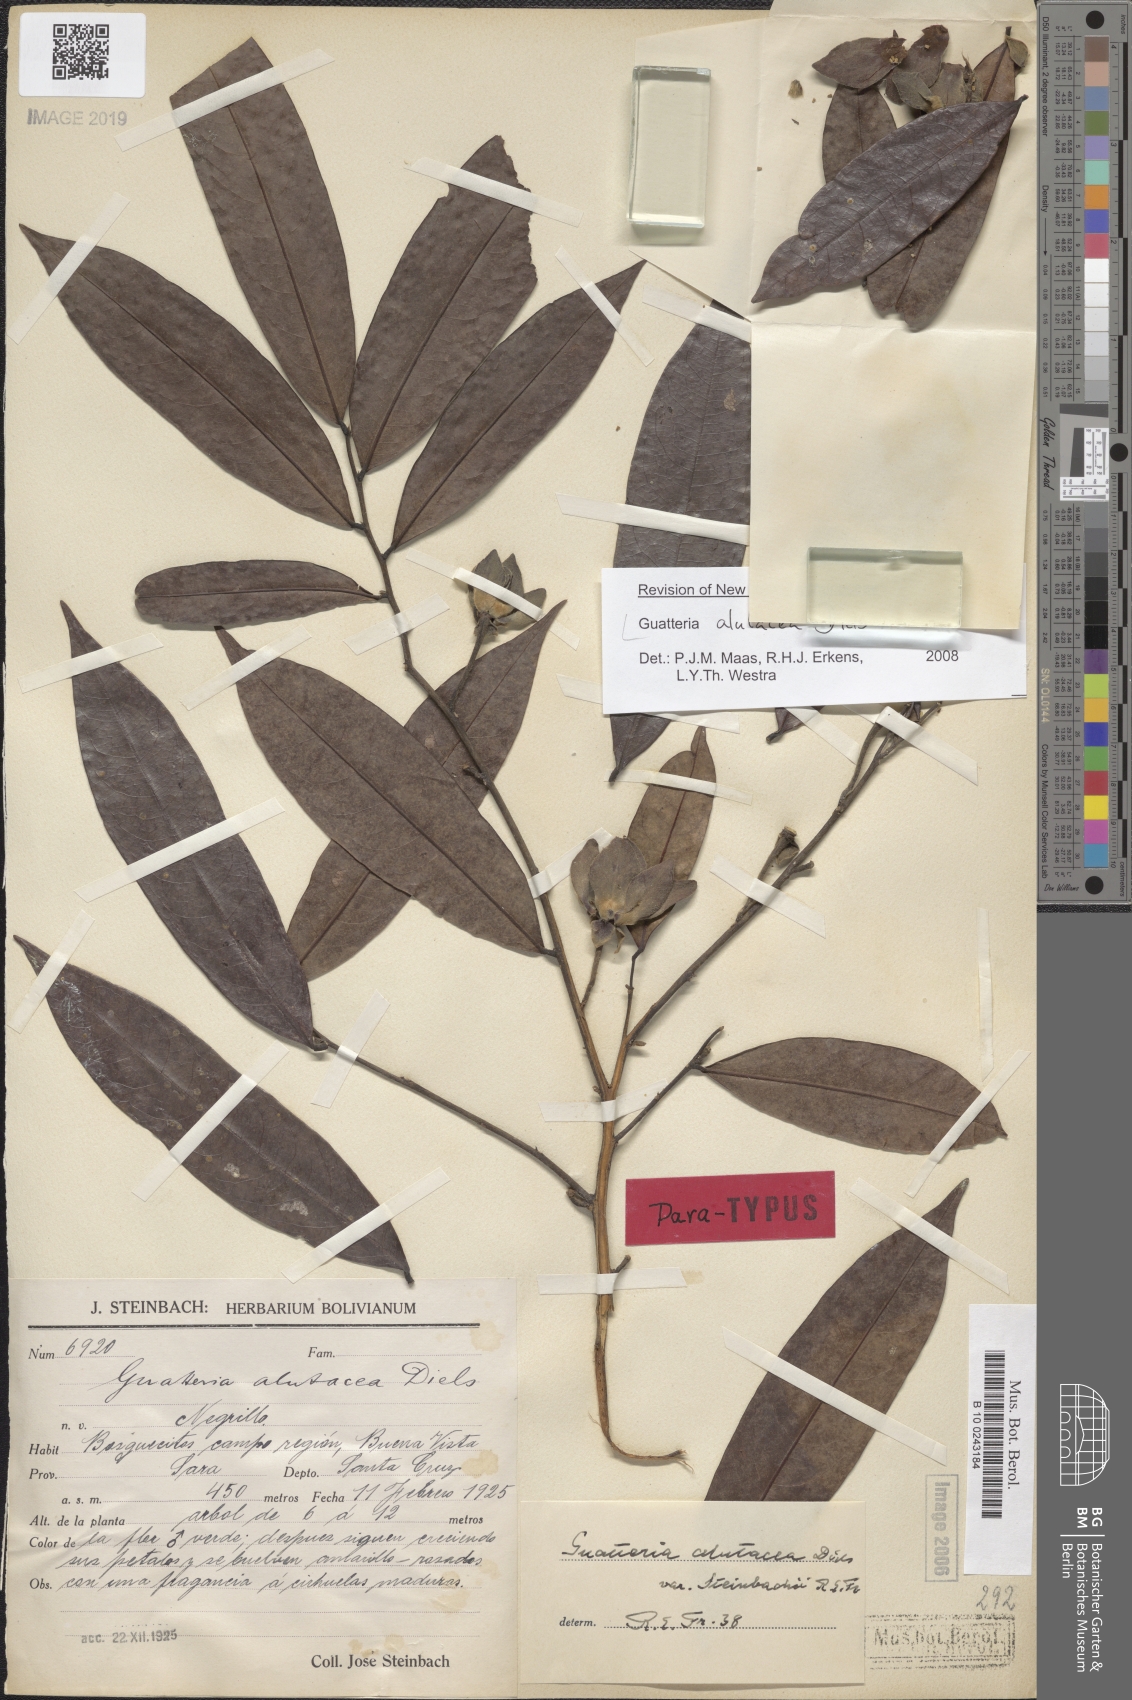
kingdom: Plantae
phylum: Tracheophyta
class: Magnoliopsida
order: Magnoliales
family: Annonaceae
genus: Guatteria
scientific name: Guatteria alutacea
